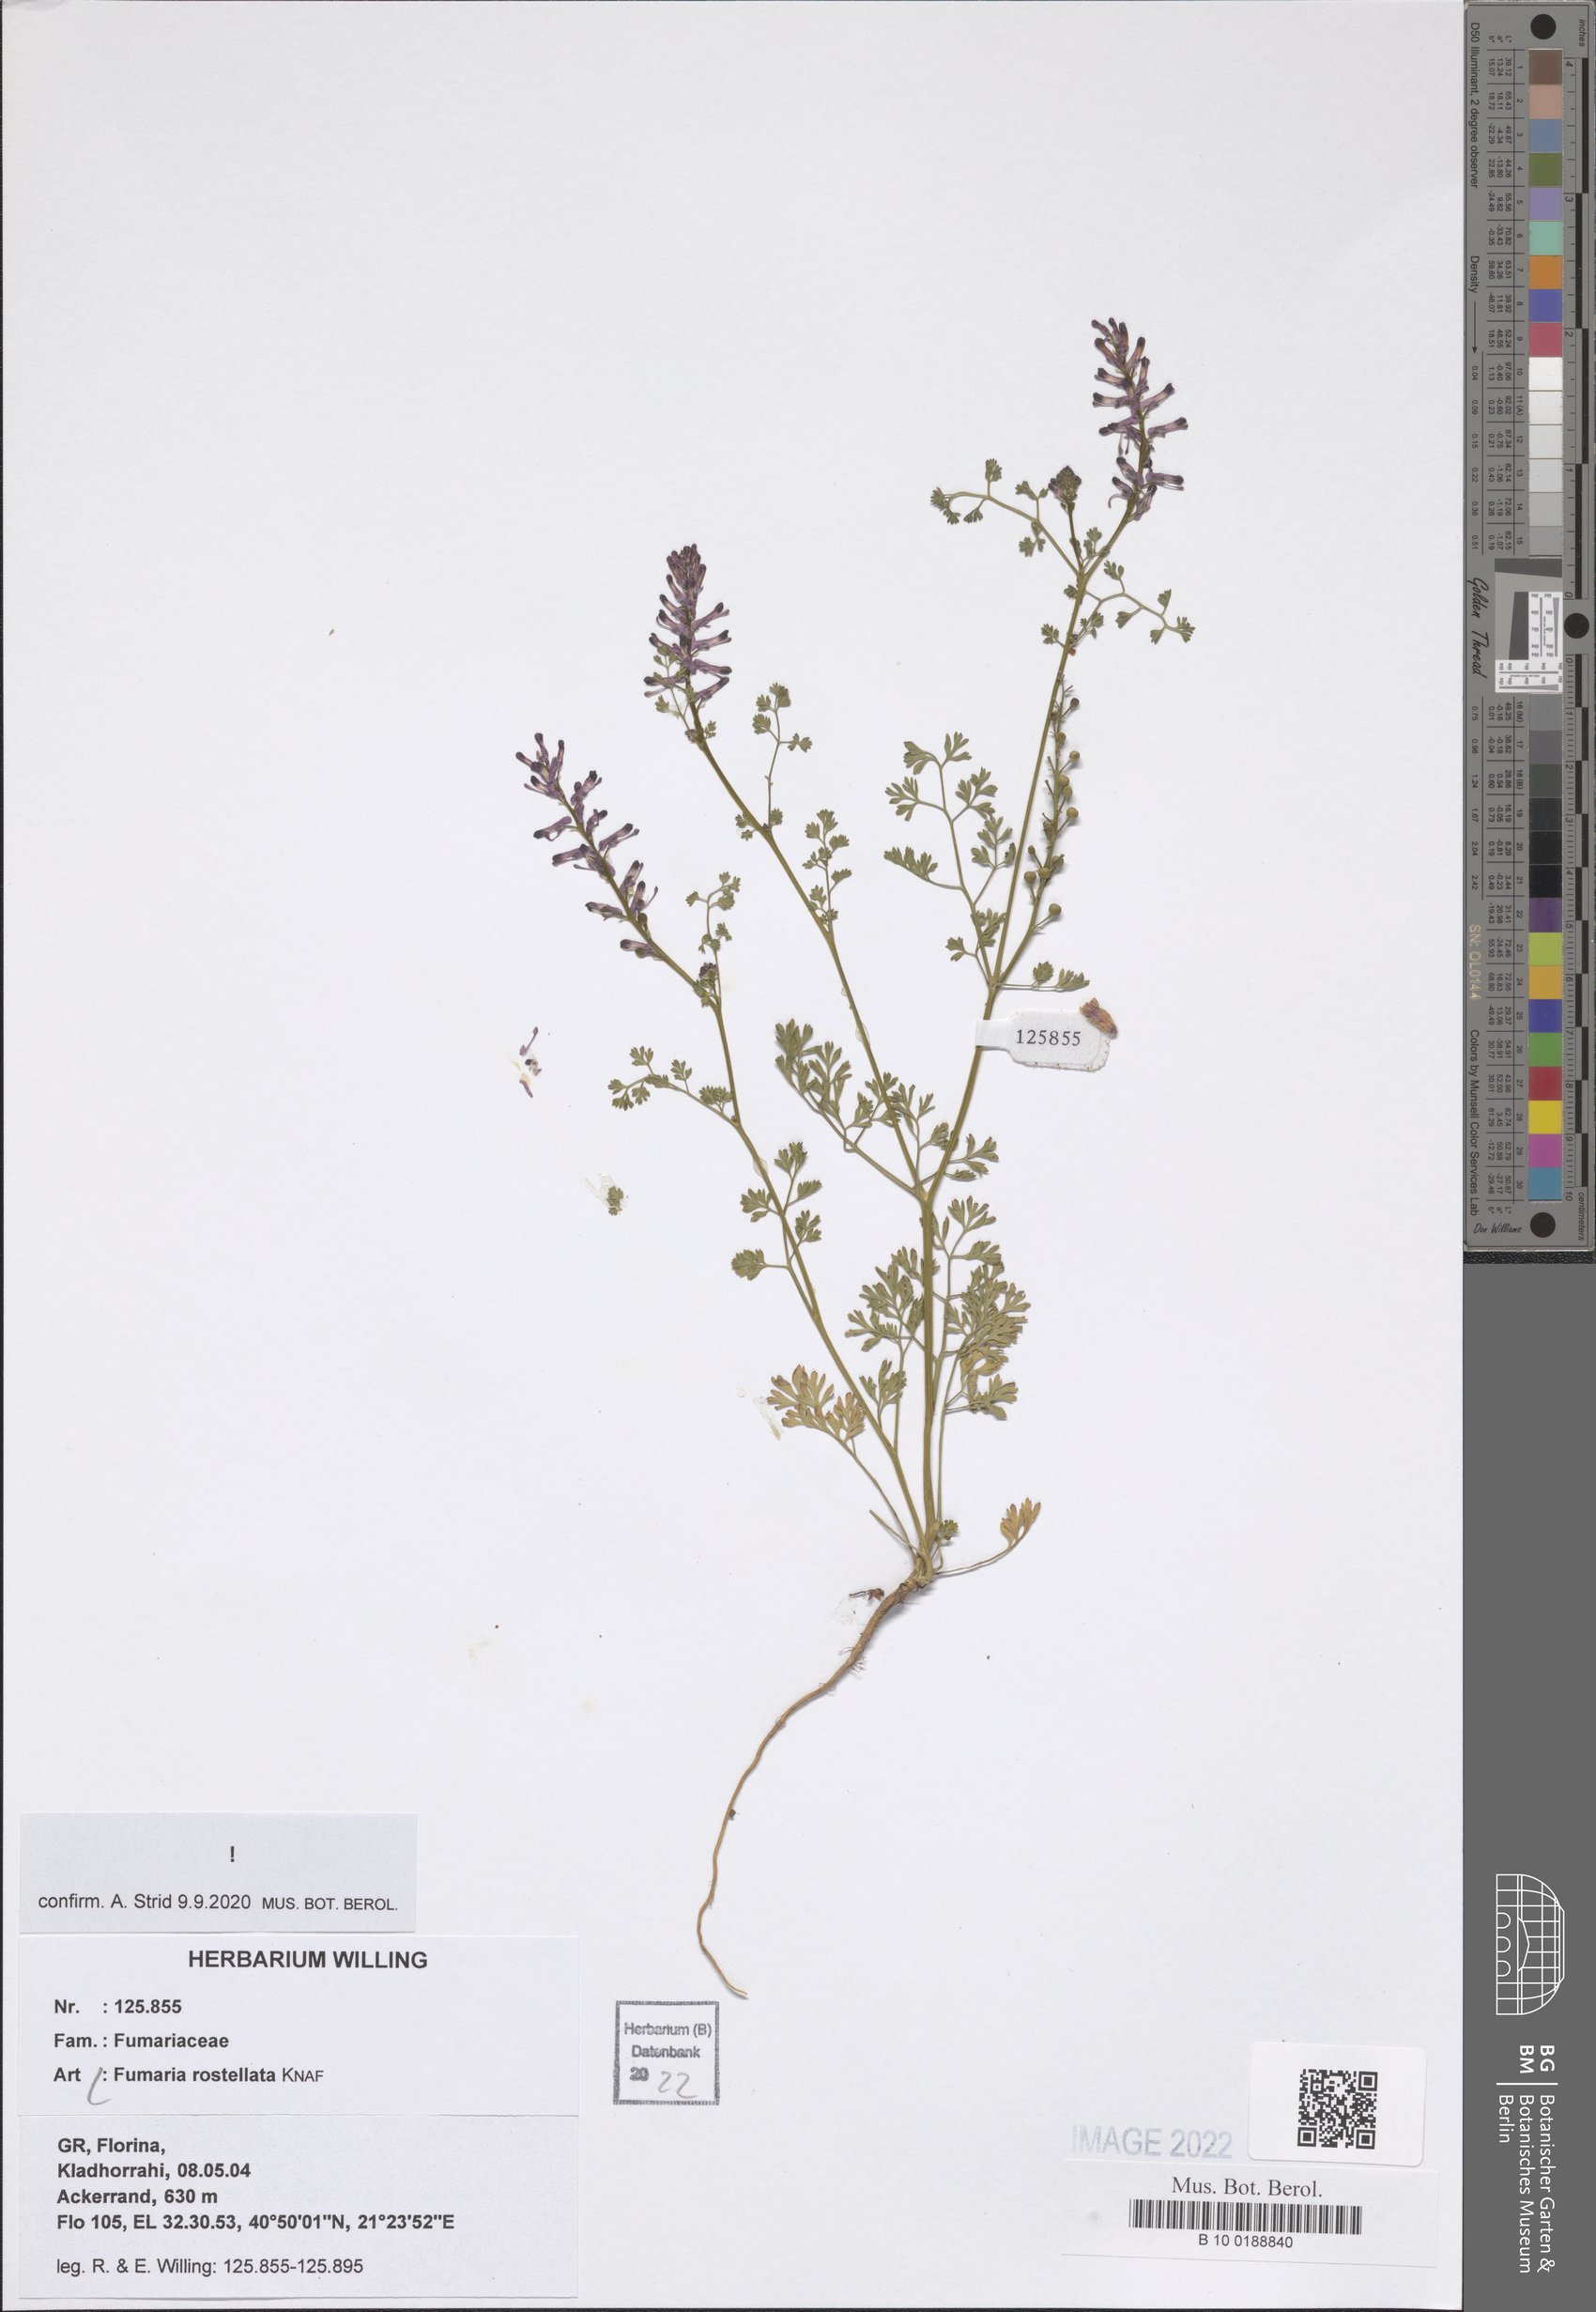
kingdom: Plantae
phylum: Tracheophyta
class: Magnoliopsida
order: Ranunculales
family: Papaveraceae
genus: Fumaria
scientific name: Fumaria rostellata
